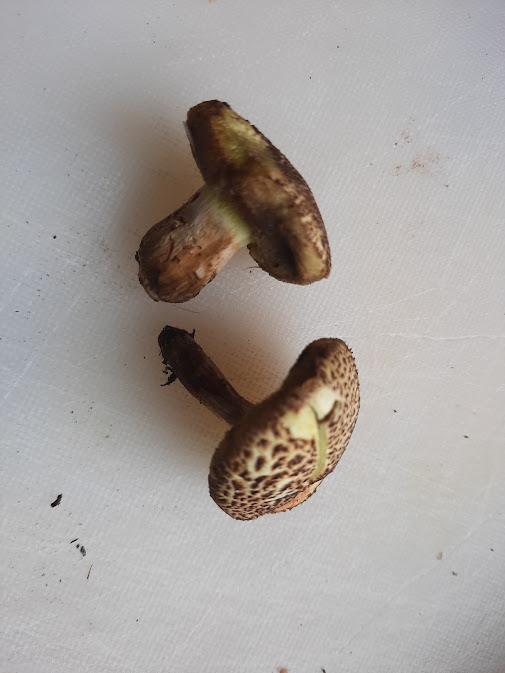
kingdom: Fungi
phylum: Basidiomycota
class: Agaricomycetes
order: Boletales
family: Boletaceae
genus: Xerocomellus
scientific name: Xerocomellus
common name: dværgrørhat
